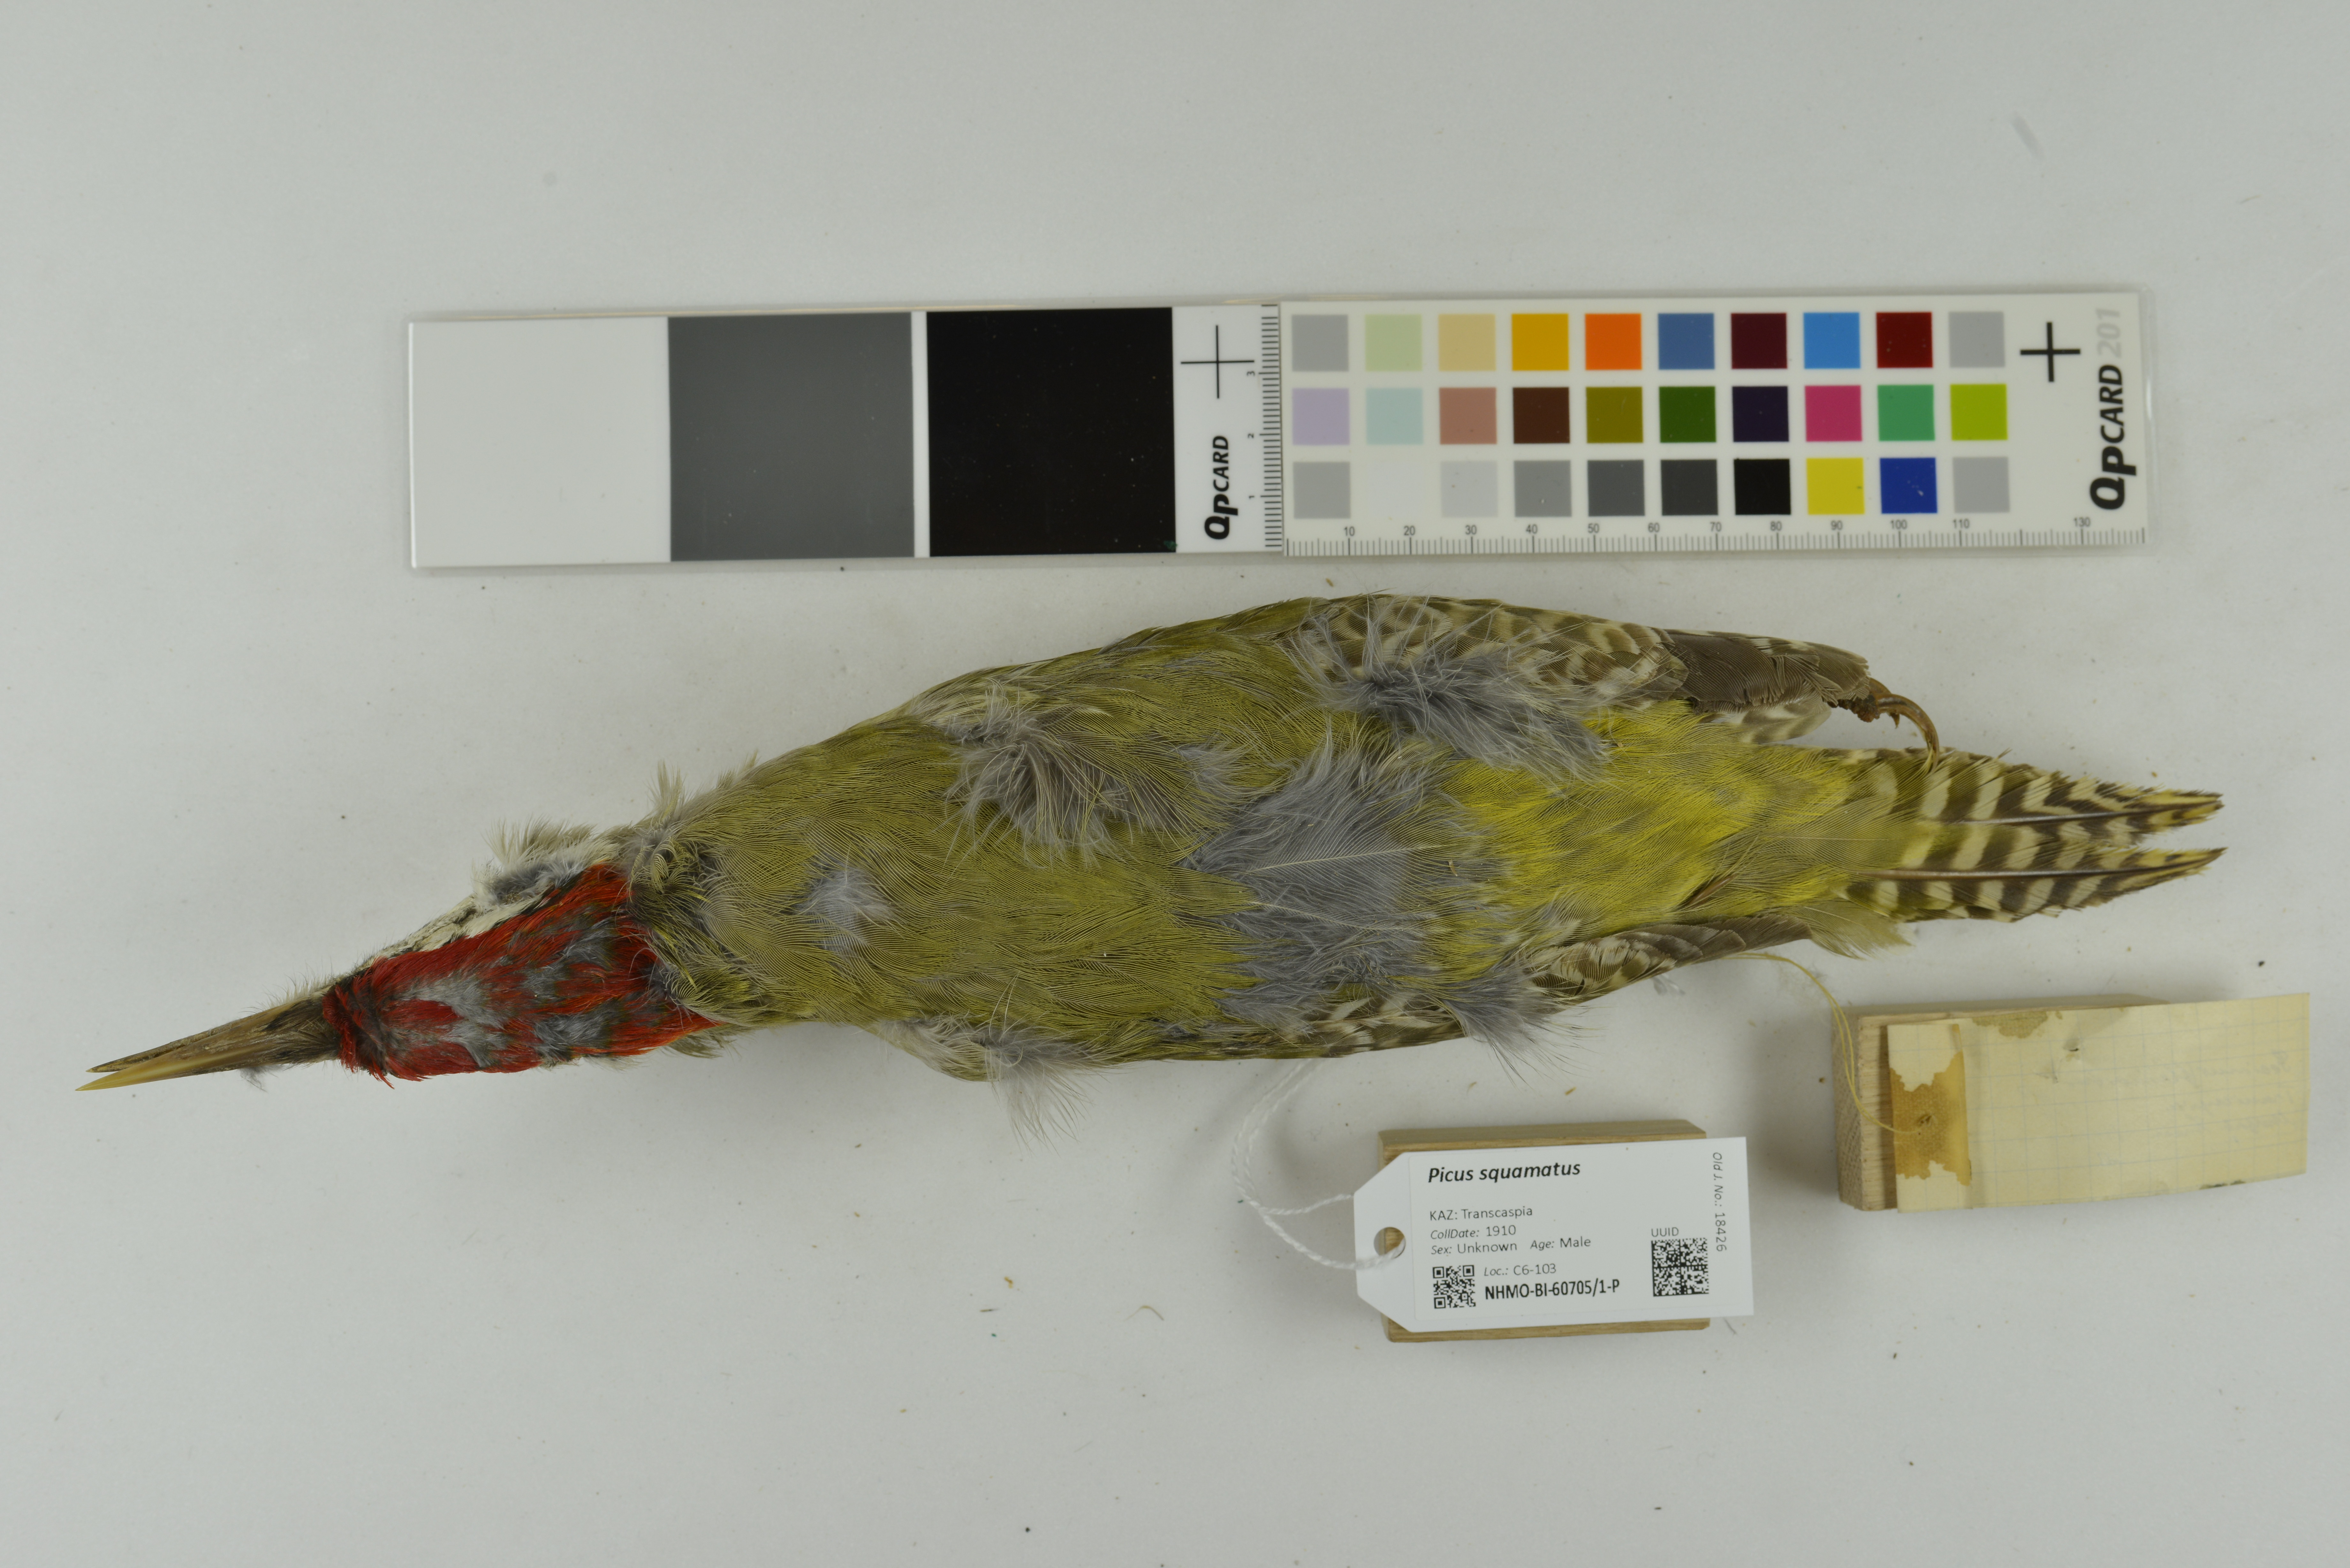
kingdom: Animalia
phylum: Chordata
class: Aves
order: Piciformes
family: Picidae
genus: Picus
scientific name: Picus squamatus
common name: Scaly-bellied woodpecker
